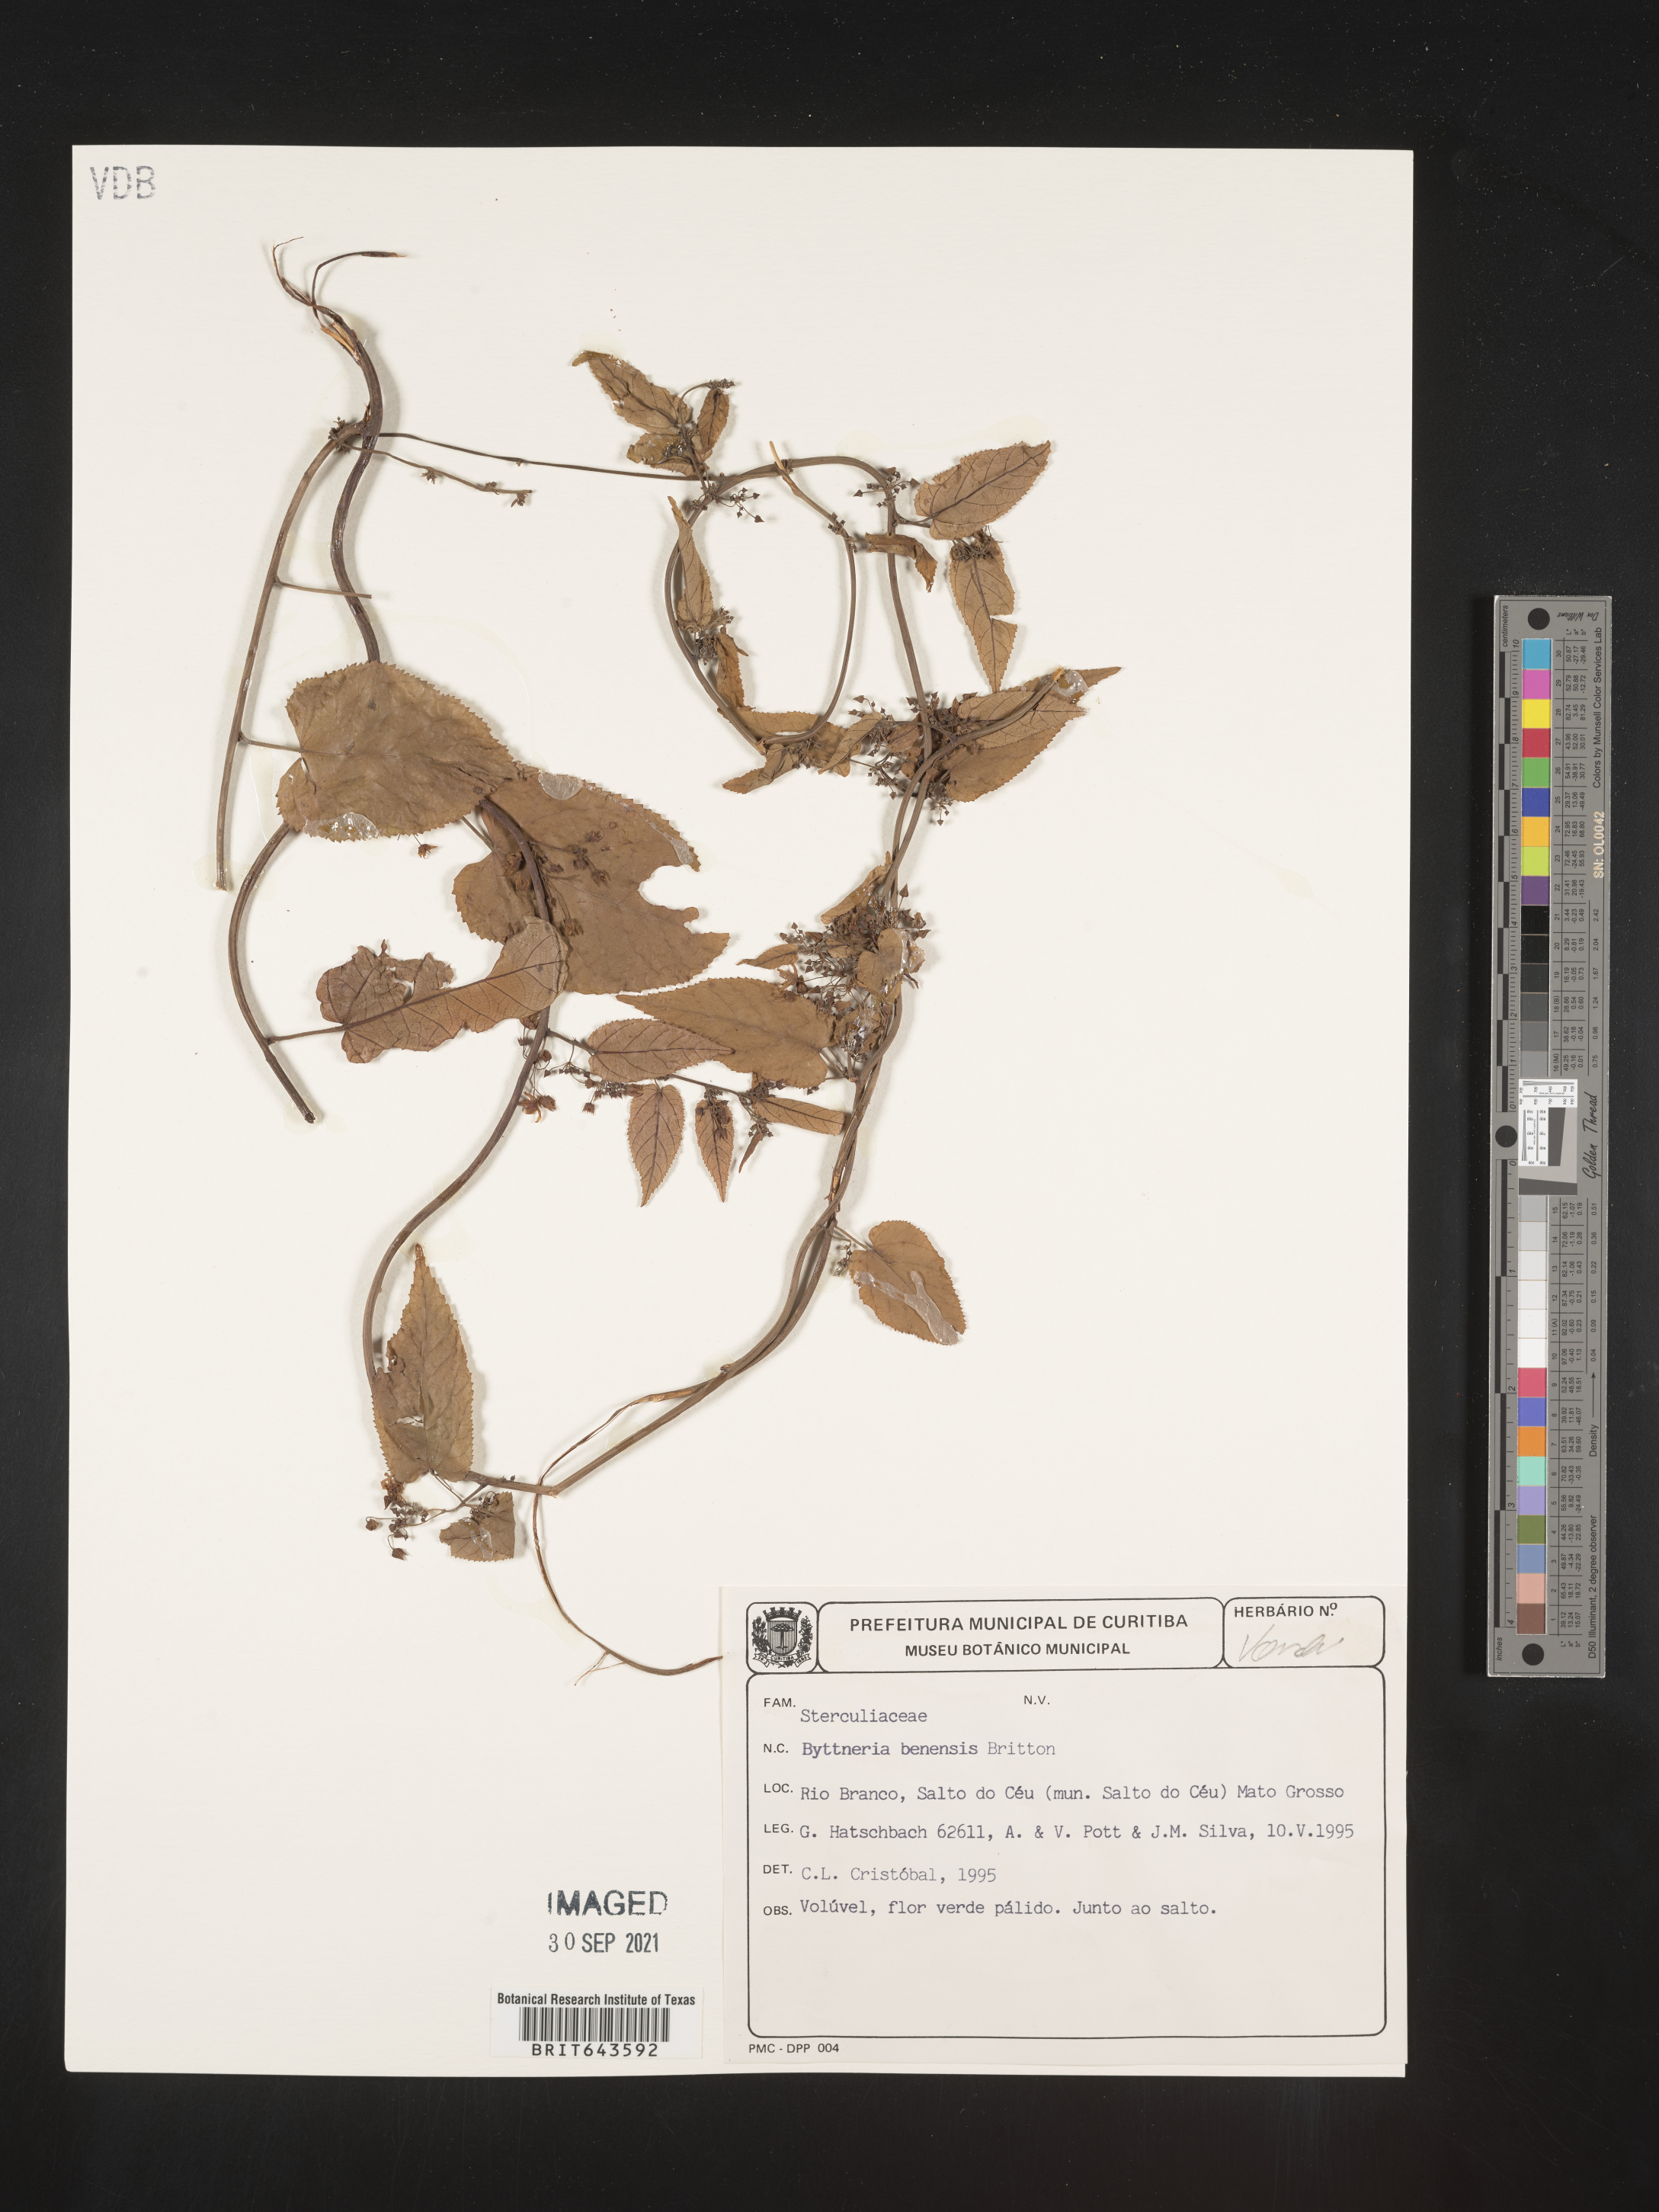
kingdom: Plantae
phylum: Tracheophyta
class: Magnoliopsida
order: Malvales
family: Malvaceae
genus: Byttneria
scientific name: Byttneria
